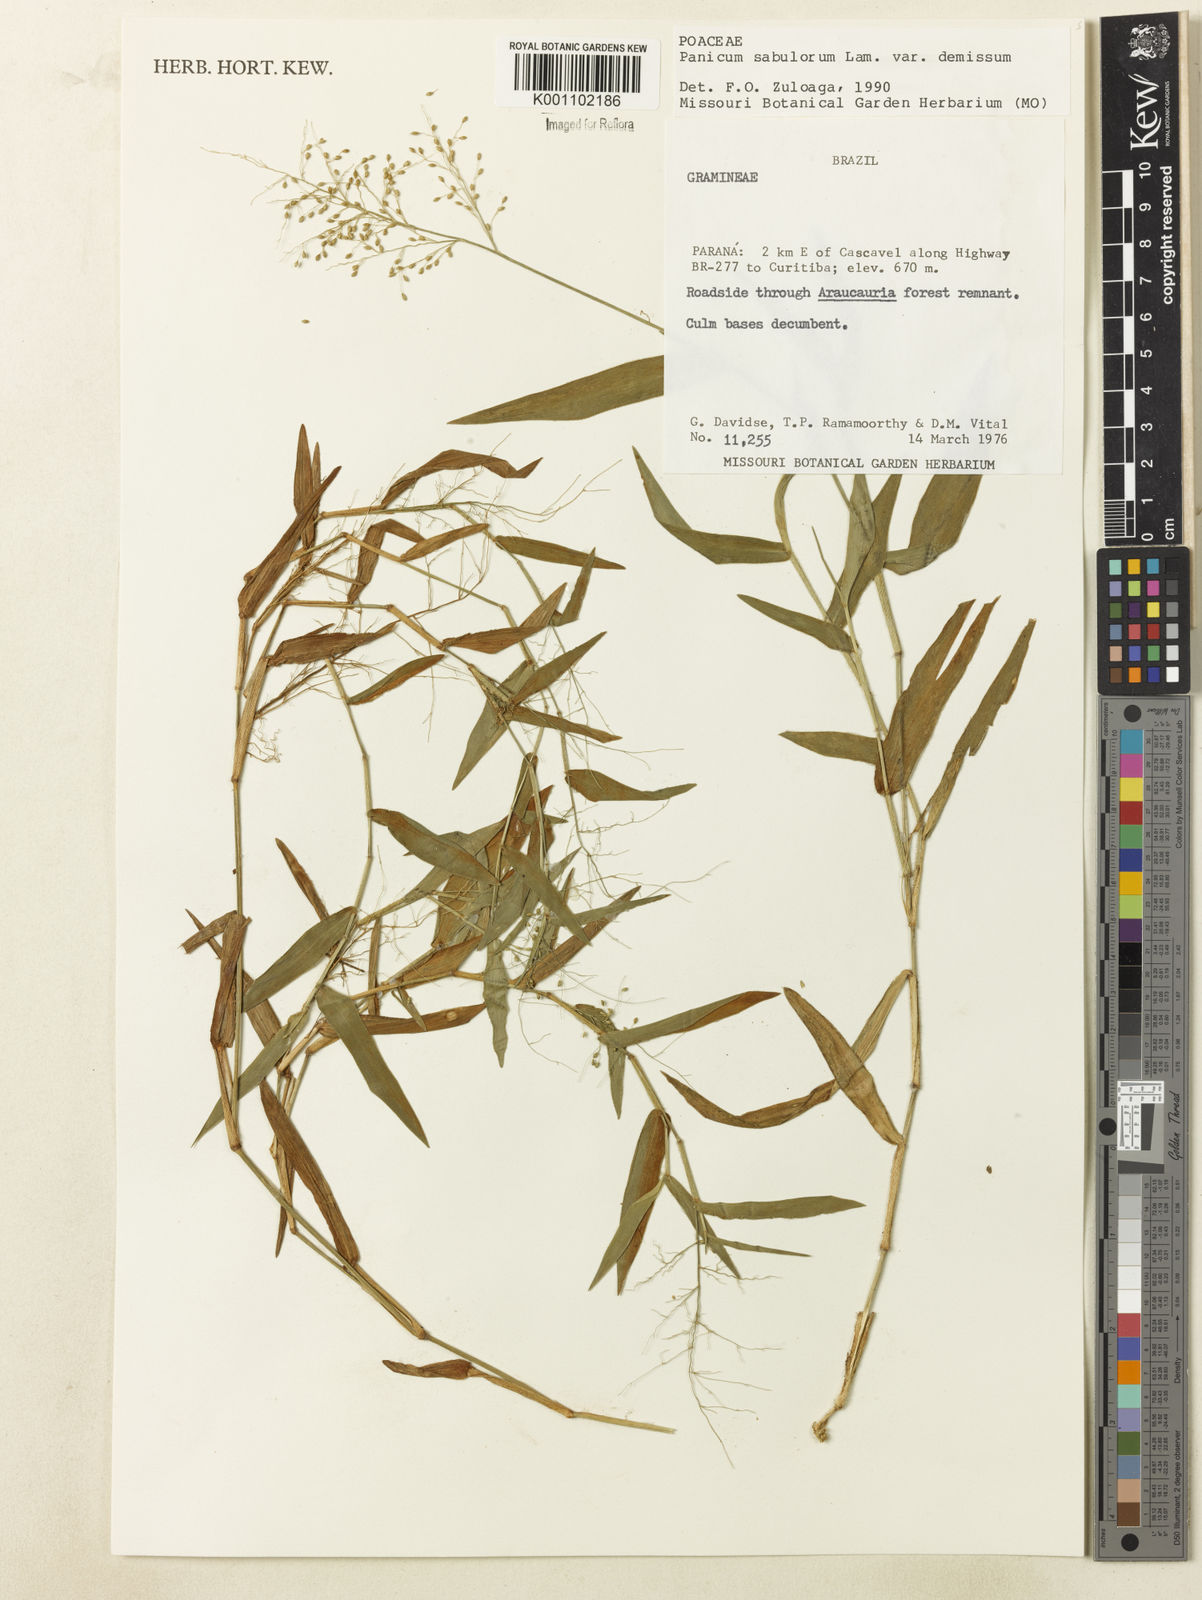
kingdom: Plantae
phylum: Tracheophyta
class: Liliopsida
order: Poales
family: Poaceae
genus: Dichanthelium
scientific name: Dichanthelium sabulorum
